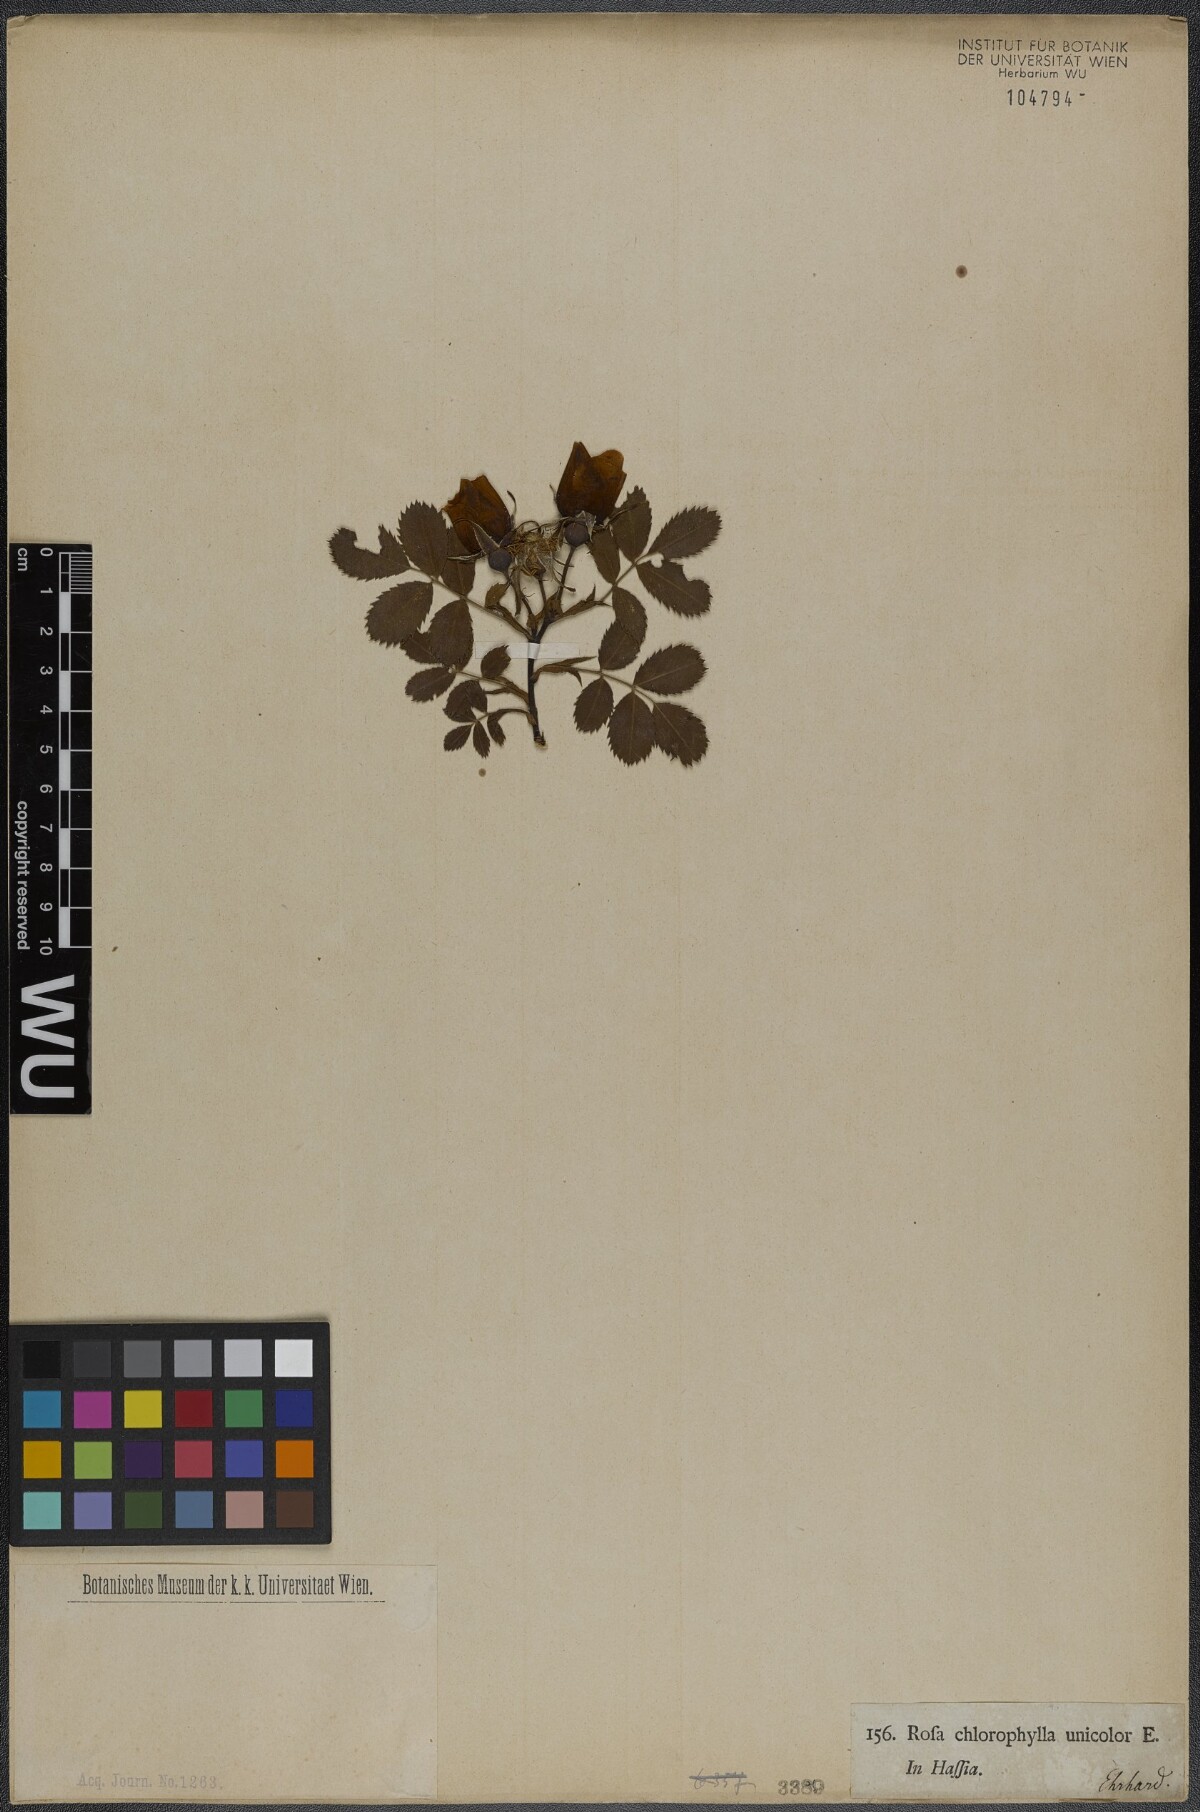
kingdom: Plantae
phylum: Tracheophyta
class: Magnoliopsida
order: Rosales
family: Rosaceae
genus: Rosa
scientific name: Rosa foetida
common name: Persian yellow rose
